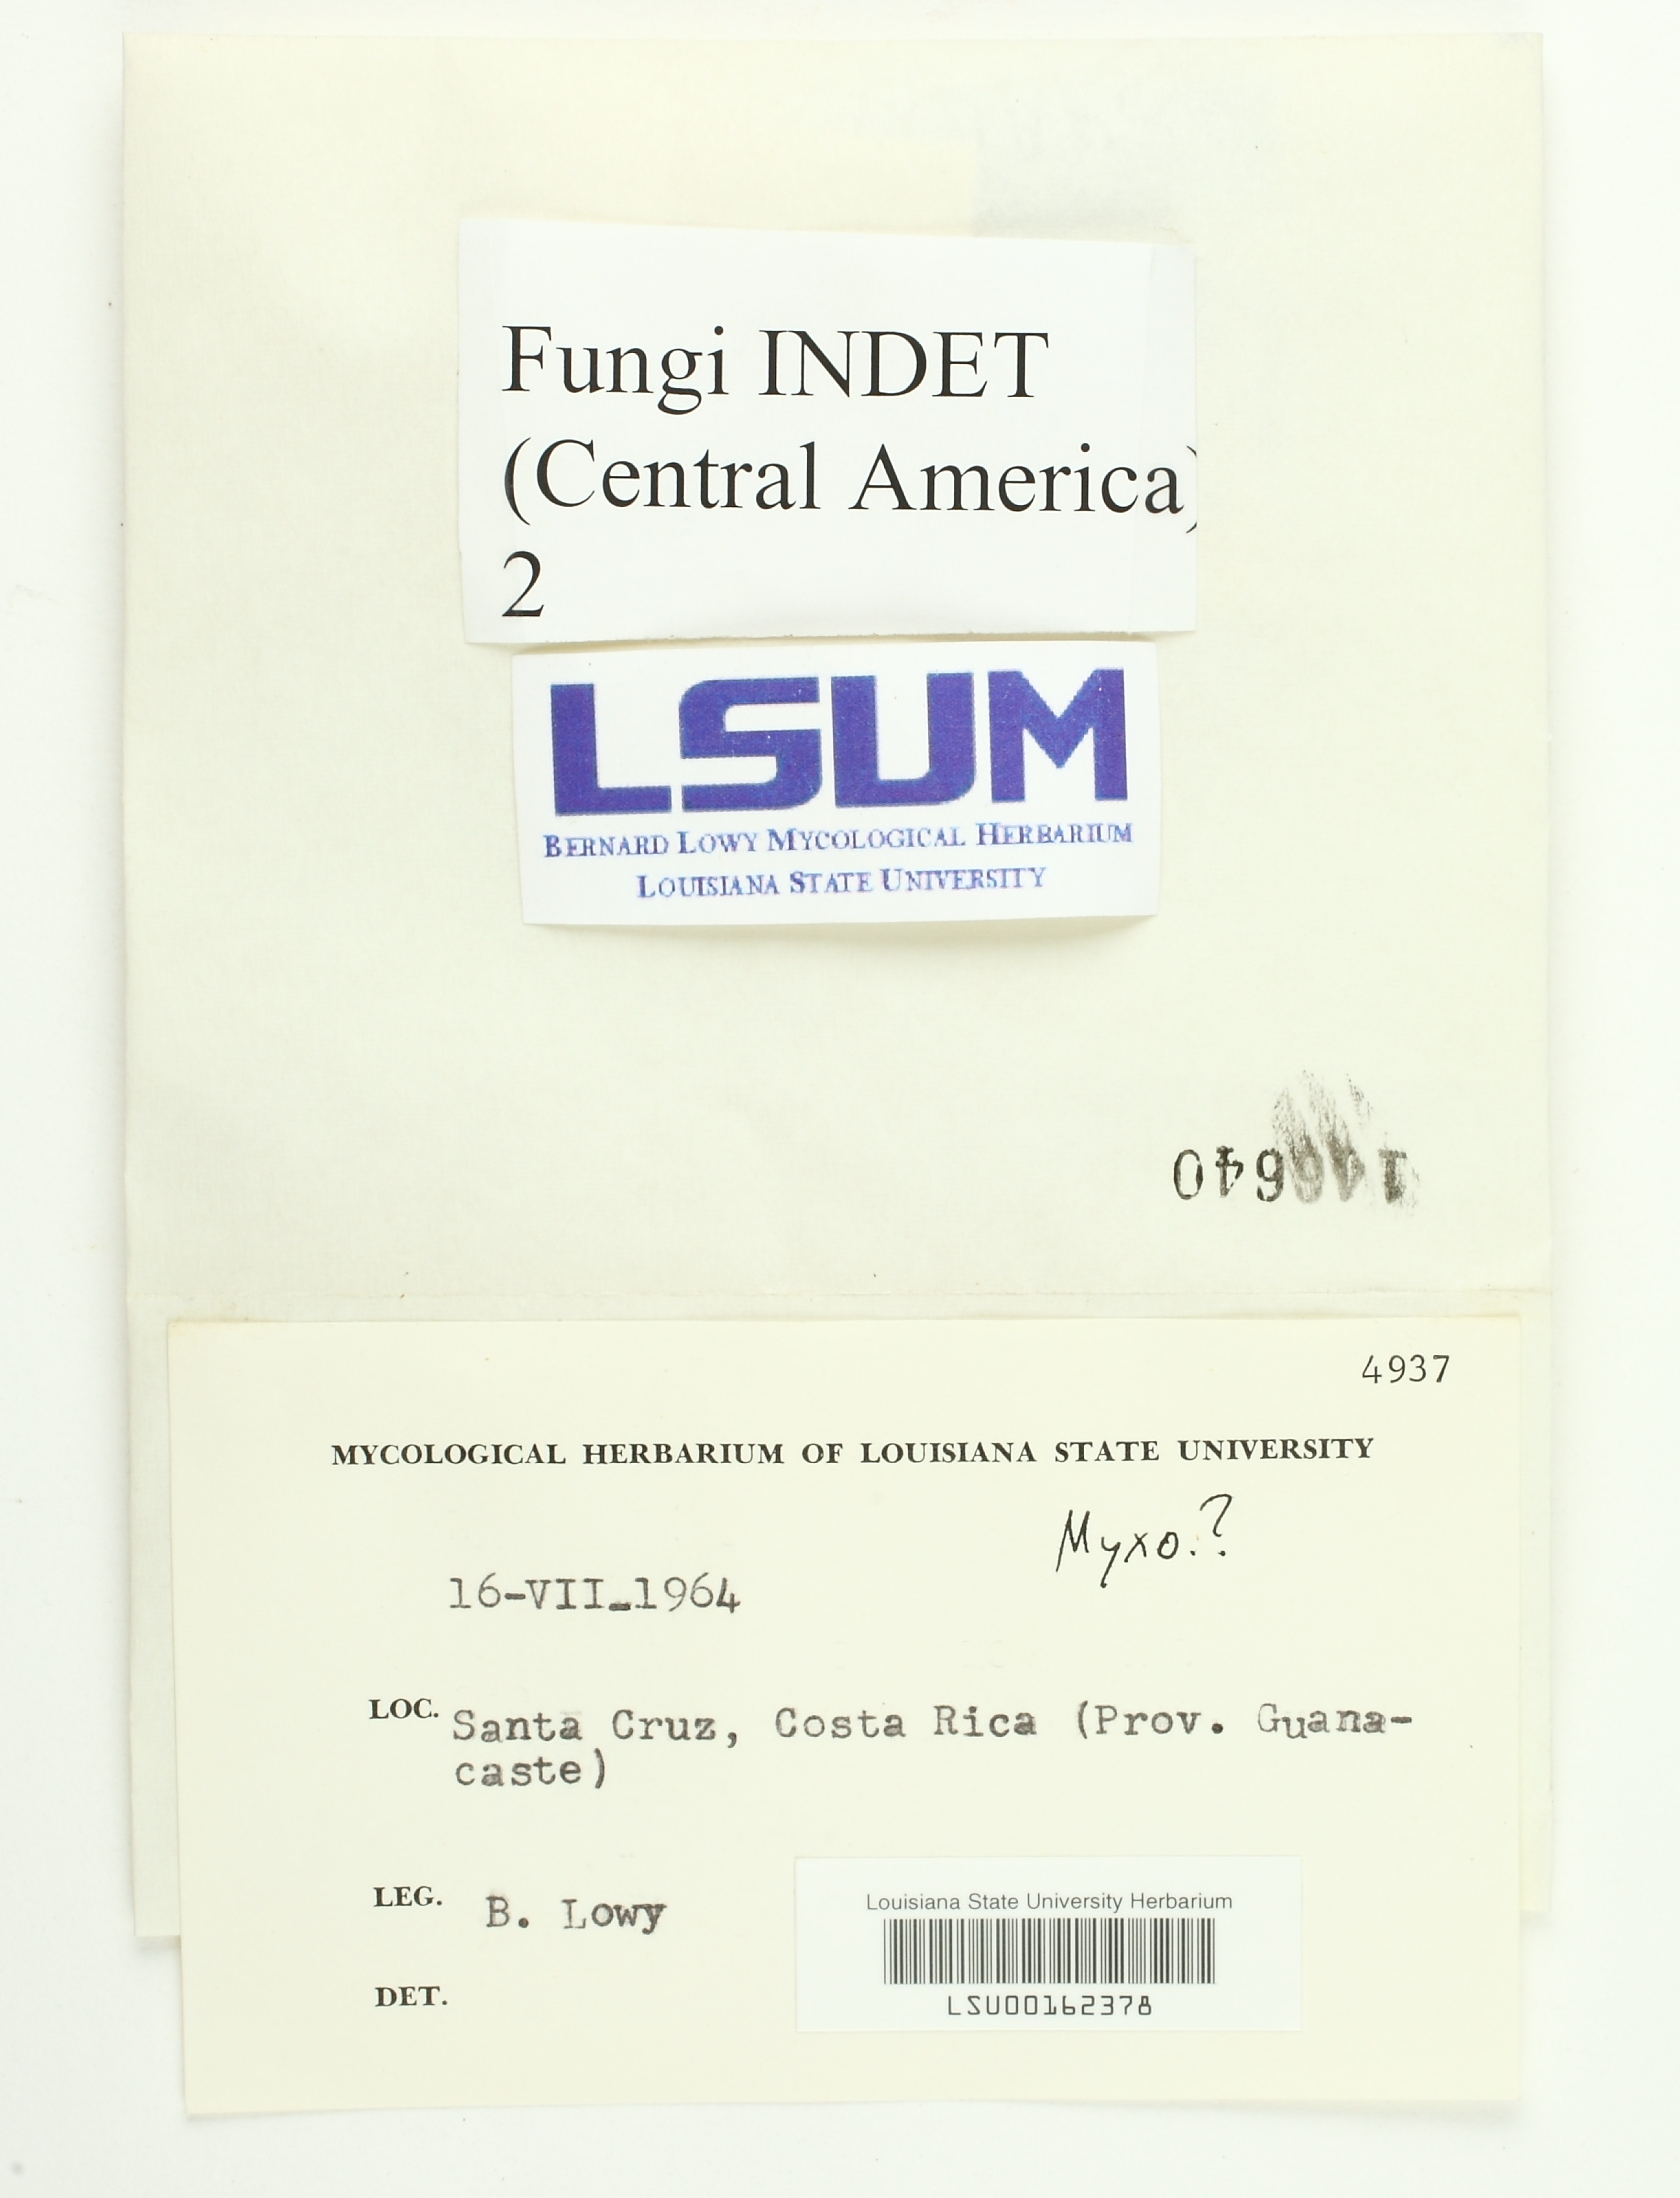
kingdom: Fungi
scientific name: Fungi
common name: Fungi
